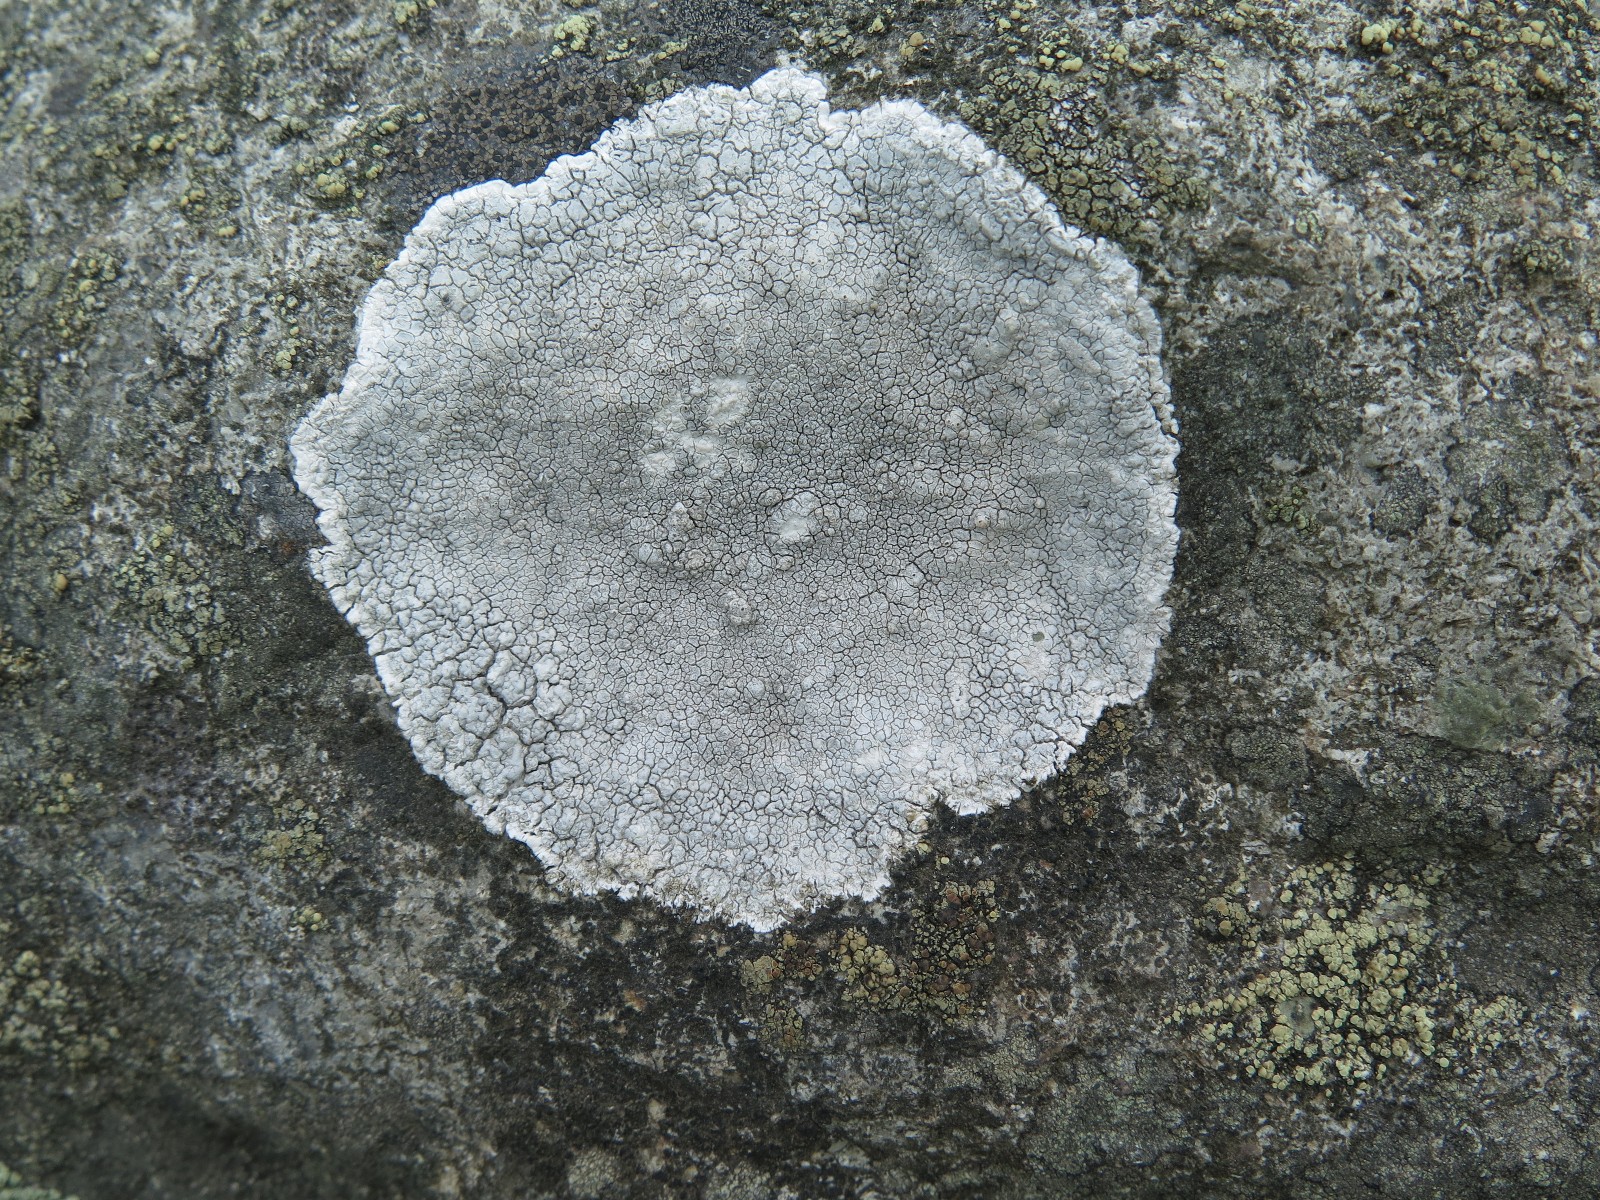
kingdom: Fungi
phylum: Ascomycota
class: Lecanoromycetes
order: Lecanorales
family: Lecanoraceae
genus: Glaucomaria
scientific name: Glaucomaria rupicola
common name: stengærde-kantskivelav
